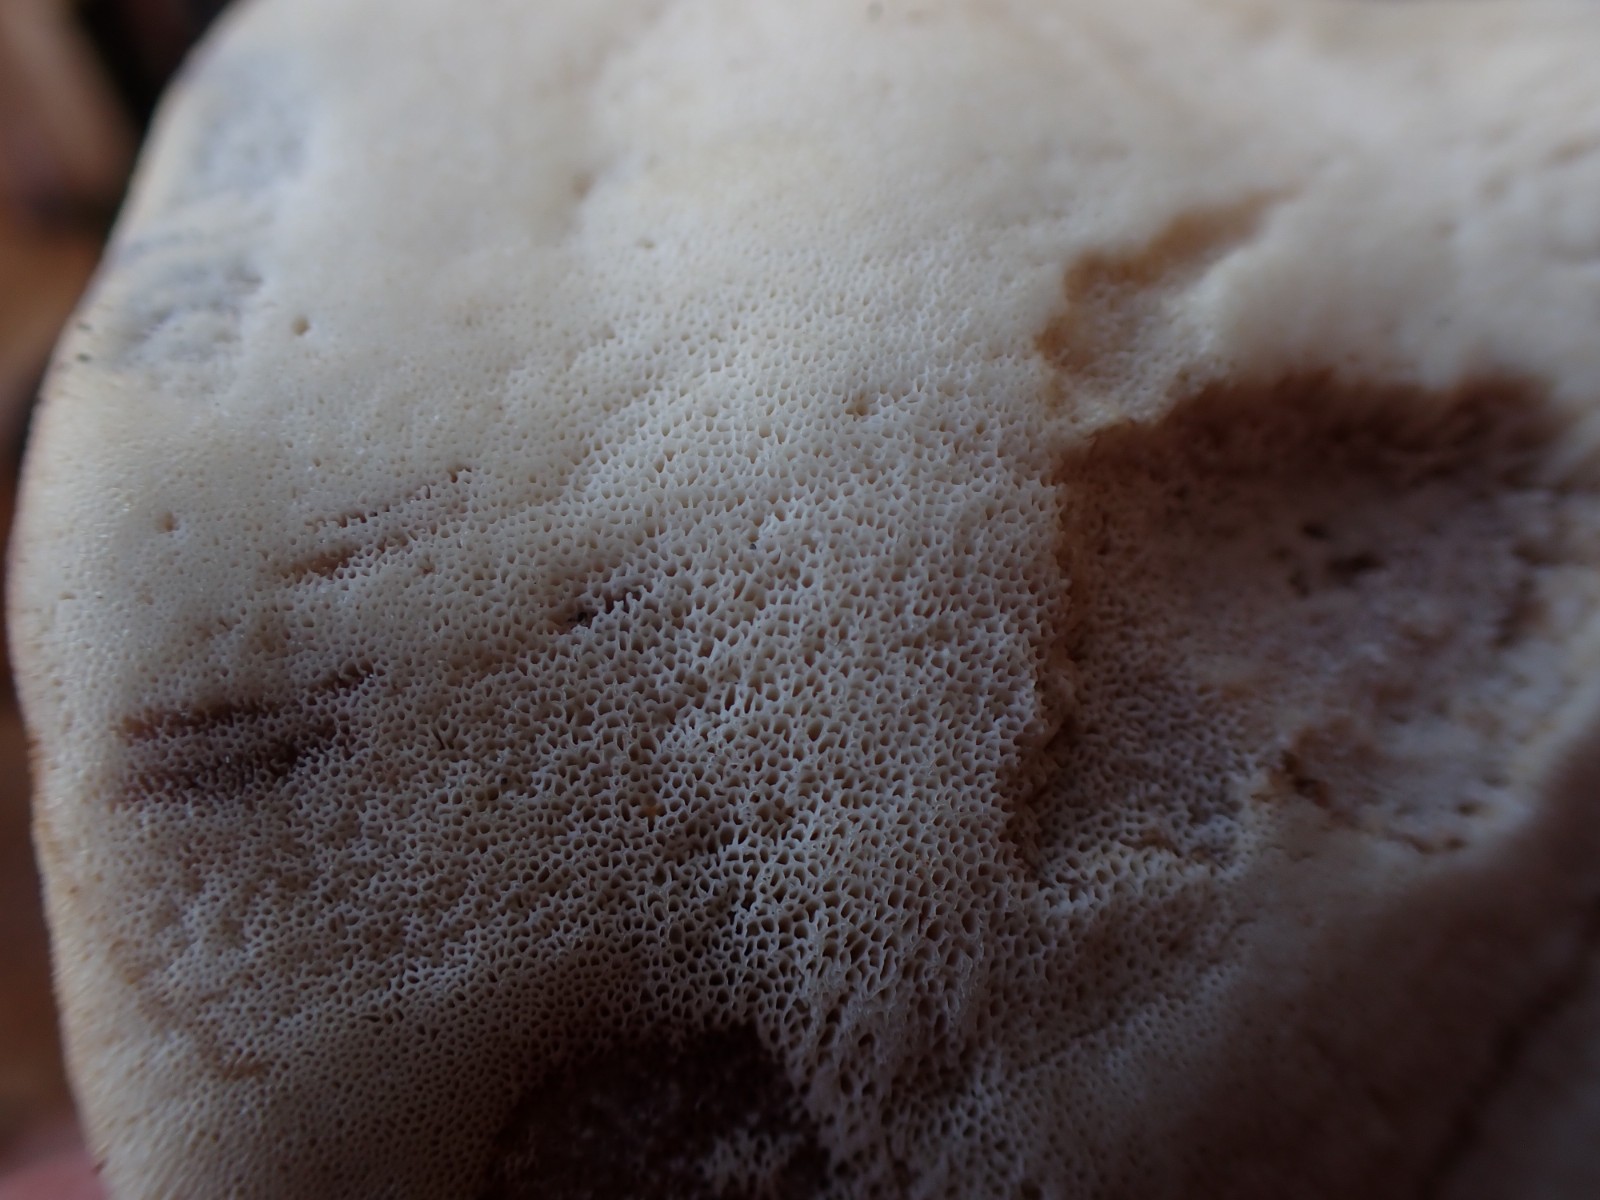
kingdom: Fungi
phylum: Basidiomycota
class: Agaricomycetes
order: Polyporales
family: Phanerochaetaceae
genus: Bjerkandera
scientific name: Bjerkandera fumosa
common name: grågul sodporesvamp
